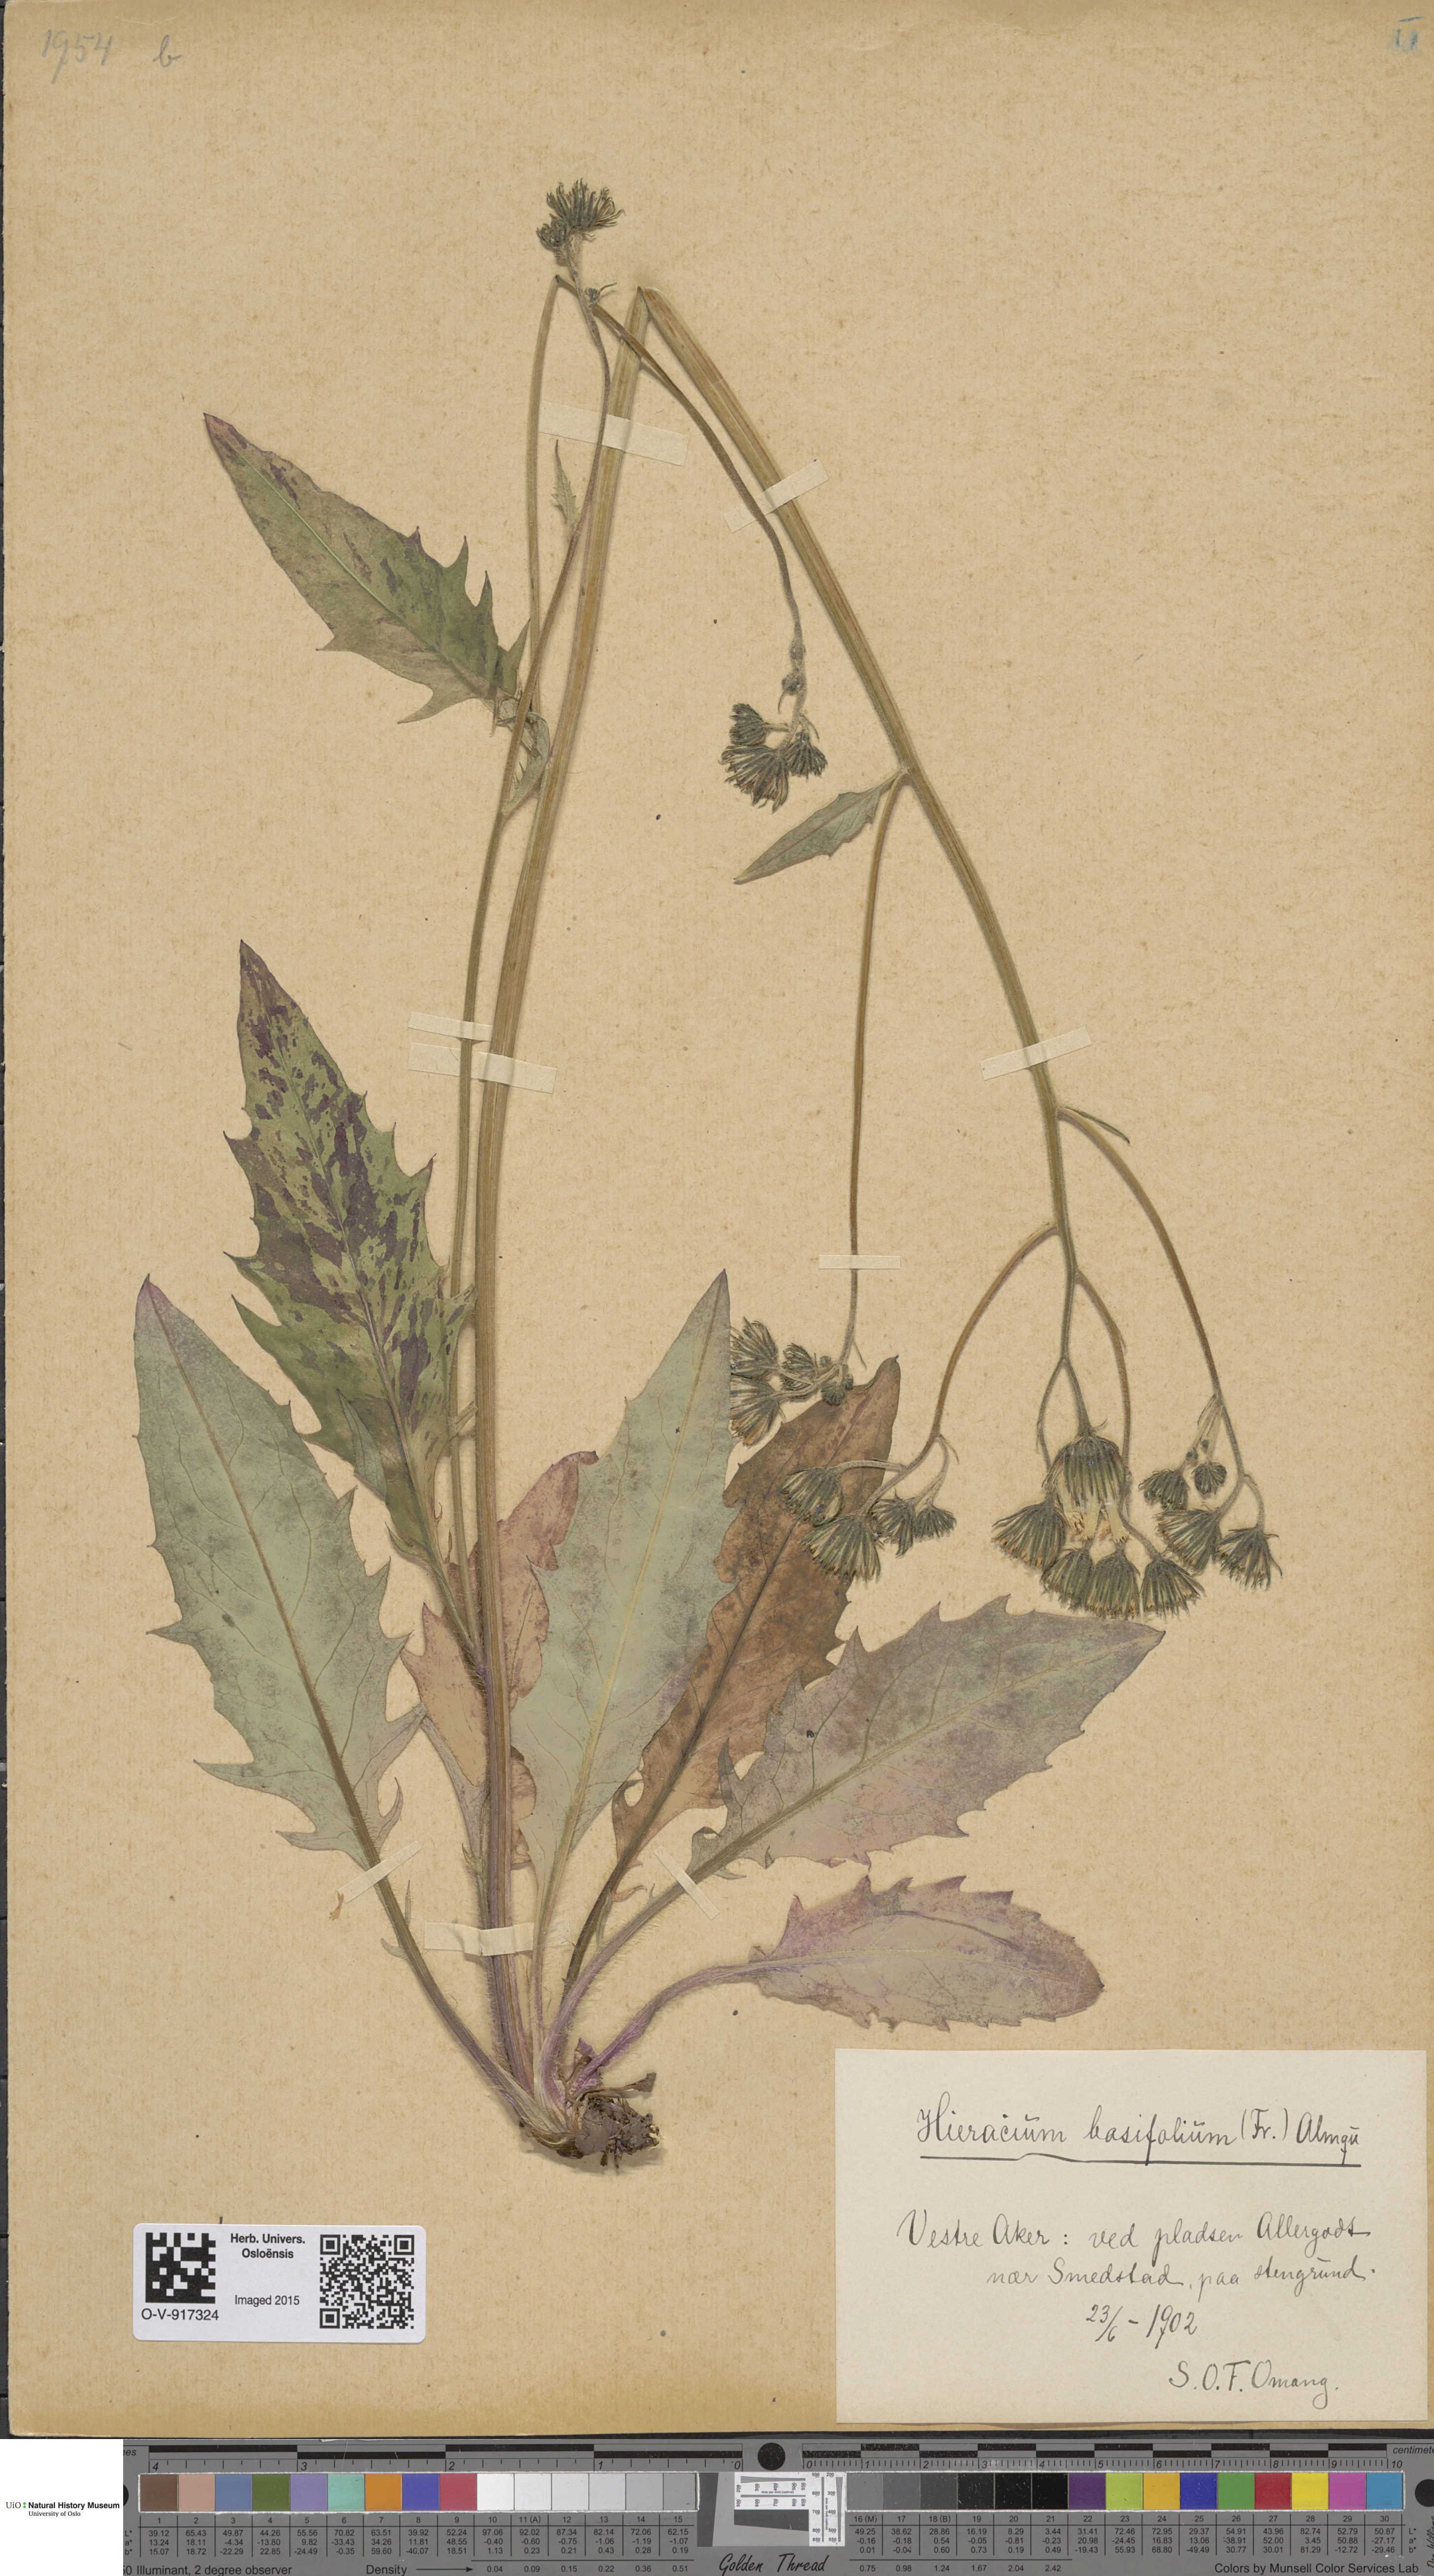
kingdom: Plantae
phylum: Tracheophyta
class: Magnoliopsida
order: Asterales
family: Asteraceae
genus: Hieracium
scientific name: Hieracium basifolium
